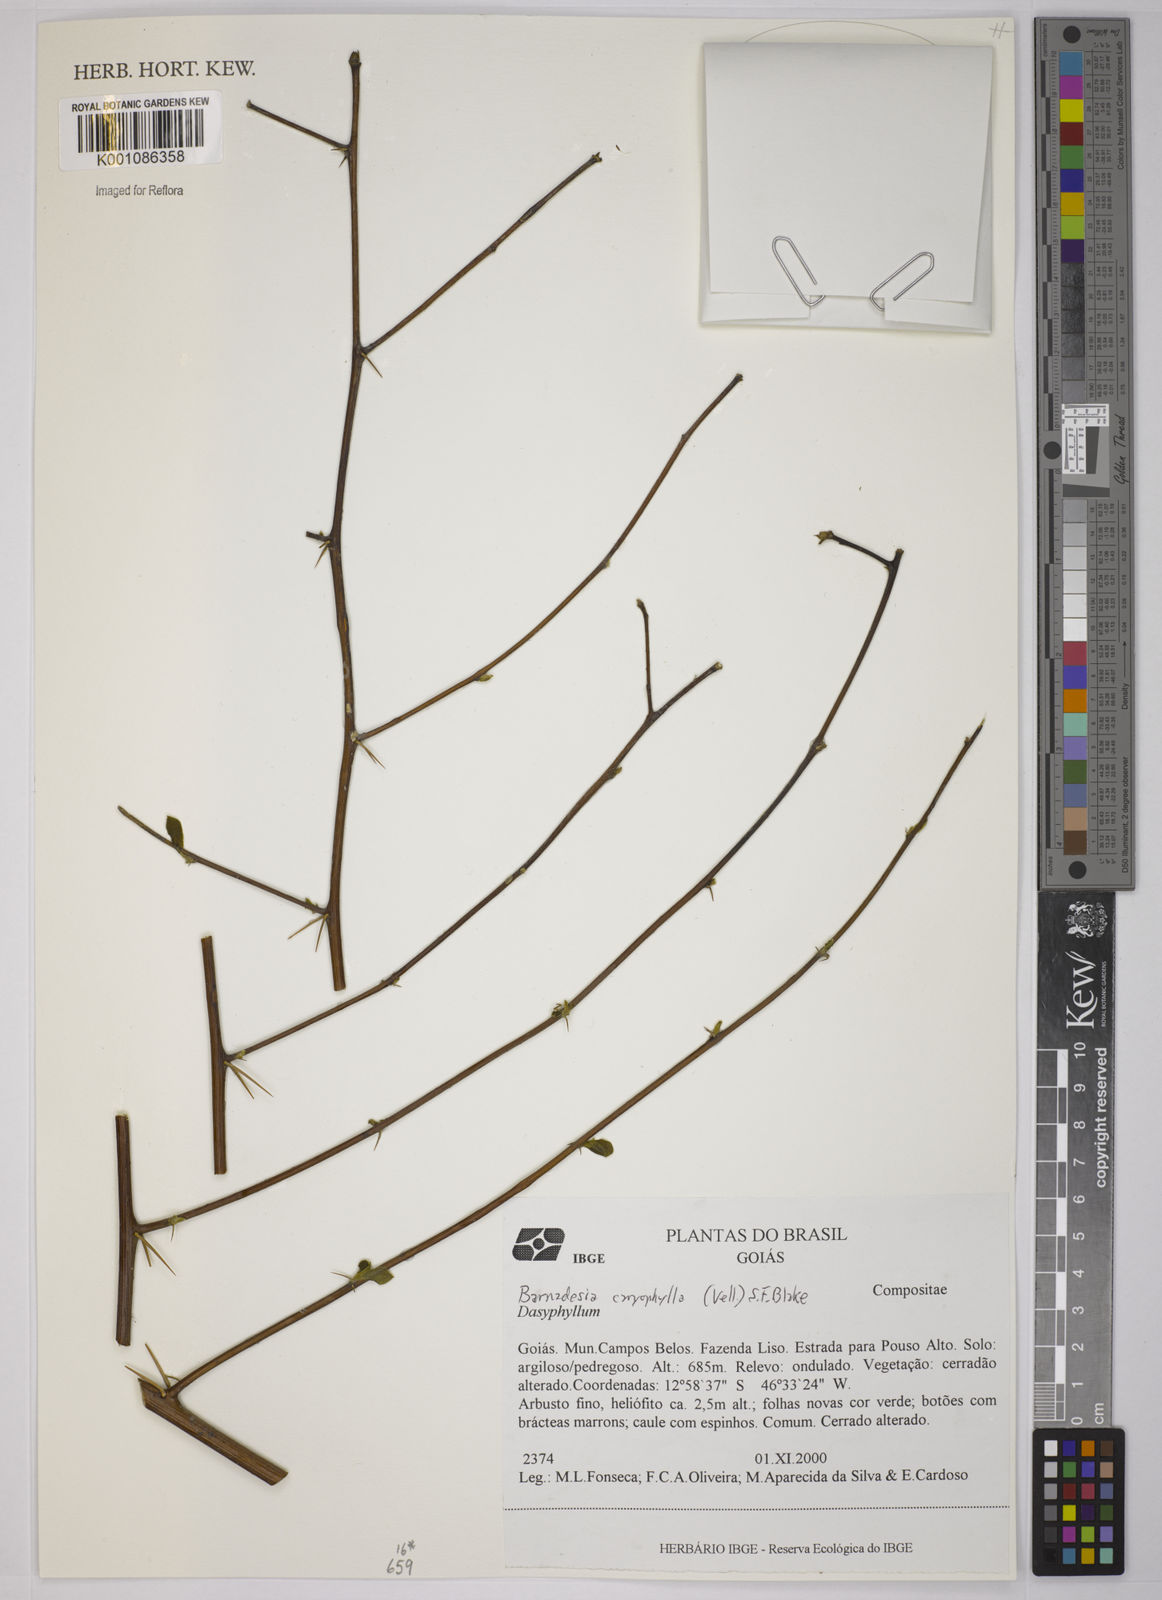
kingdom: Plantae
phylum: Tracheophyta
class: Magnoliopsida
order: Asterales
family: Asteraceae
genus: Barnadesia
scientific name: Barnadesia caryophylla
